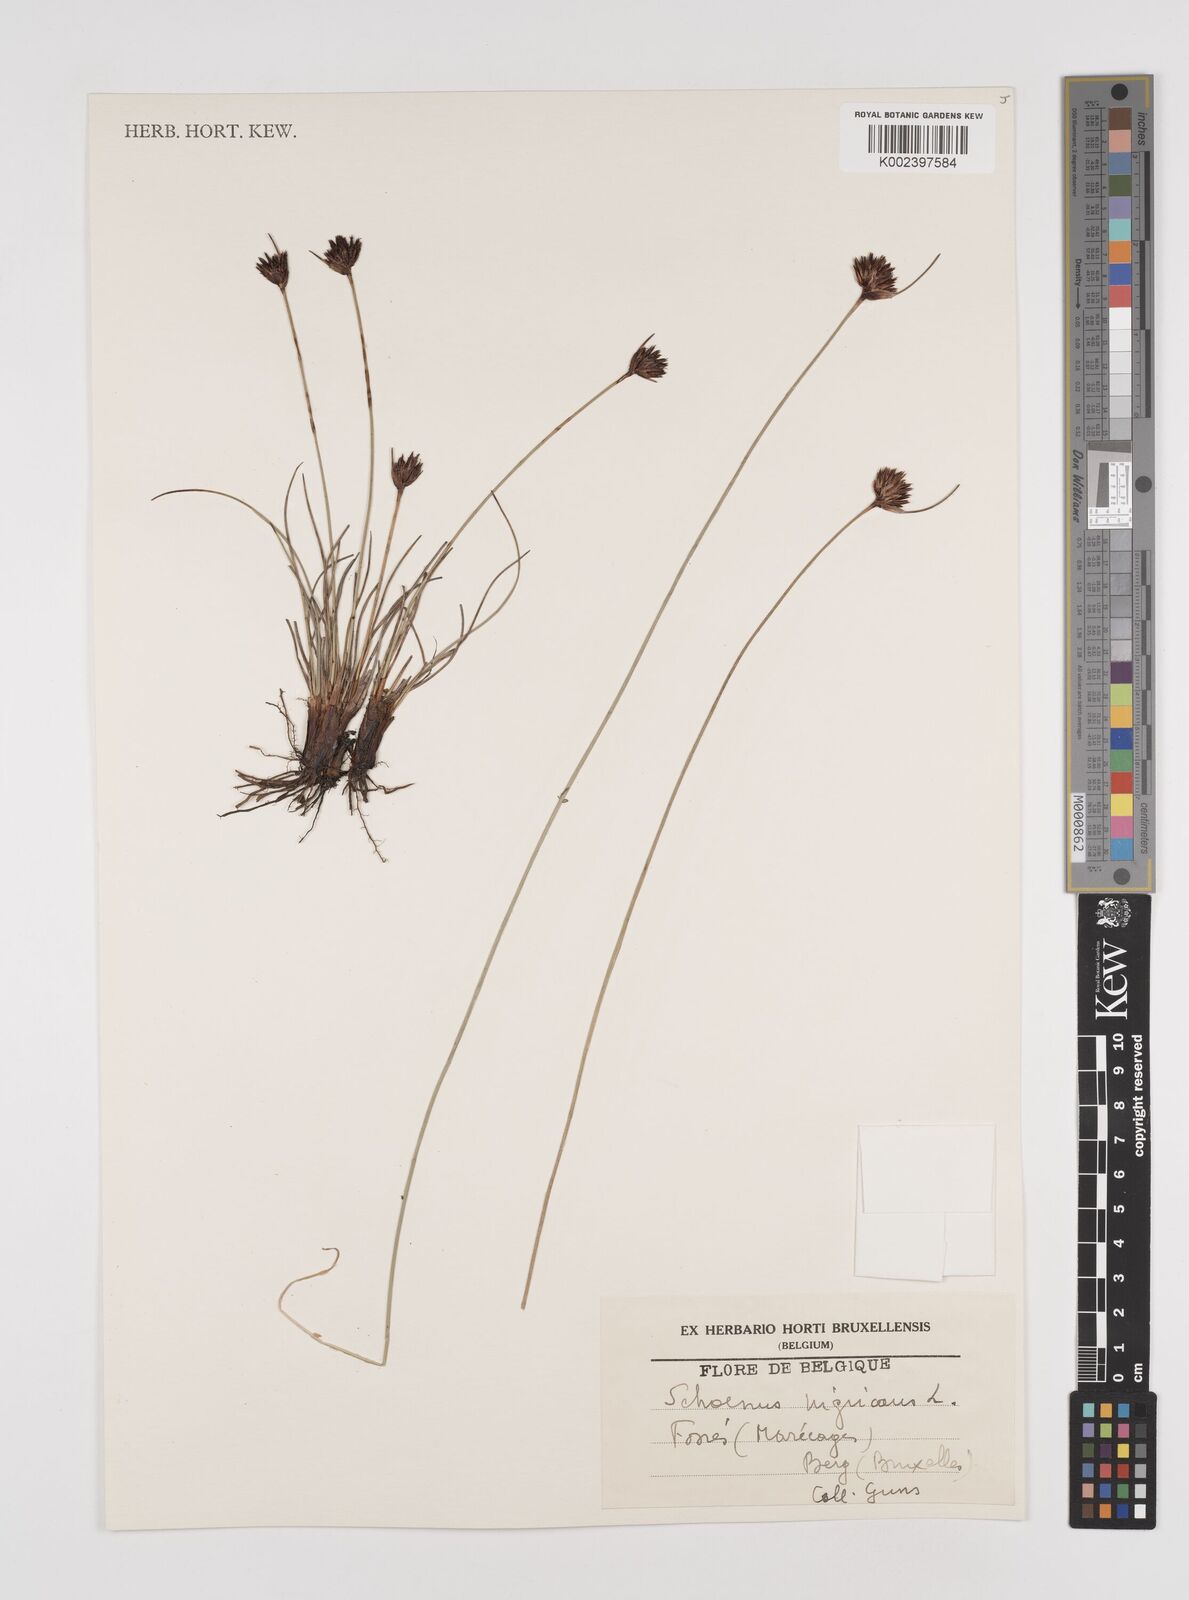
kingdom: Plantae
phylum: Tracheophyta
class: Liliopsida
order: Poales
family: Cyperaceae
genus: Schoenus
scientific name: Schoenus nigricans
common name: Black bog-rush
